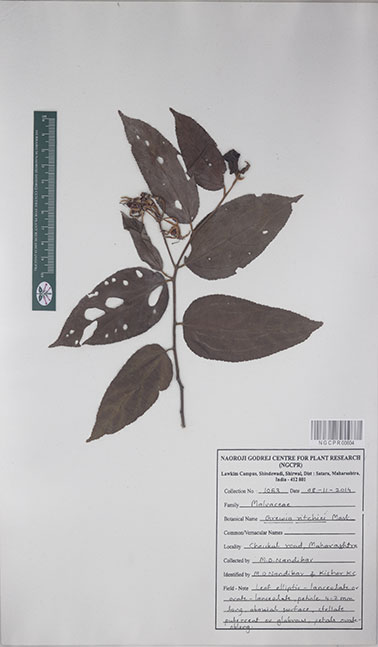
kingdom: Plantae
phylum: Tracheophyta
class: Magnoliopsida
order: Malvales
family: Malvaceae
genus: Grewia
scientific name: Grewia ritchiei
